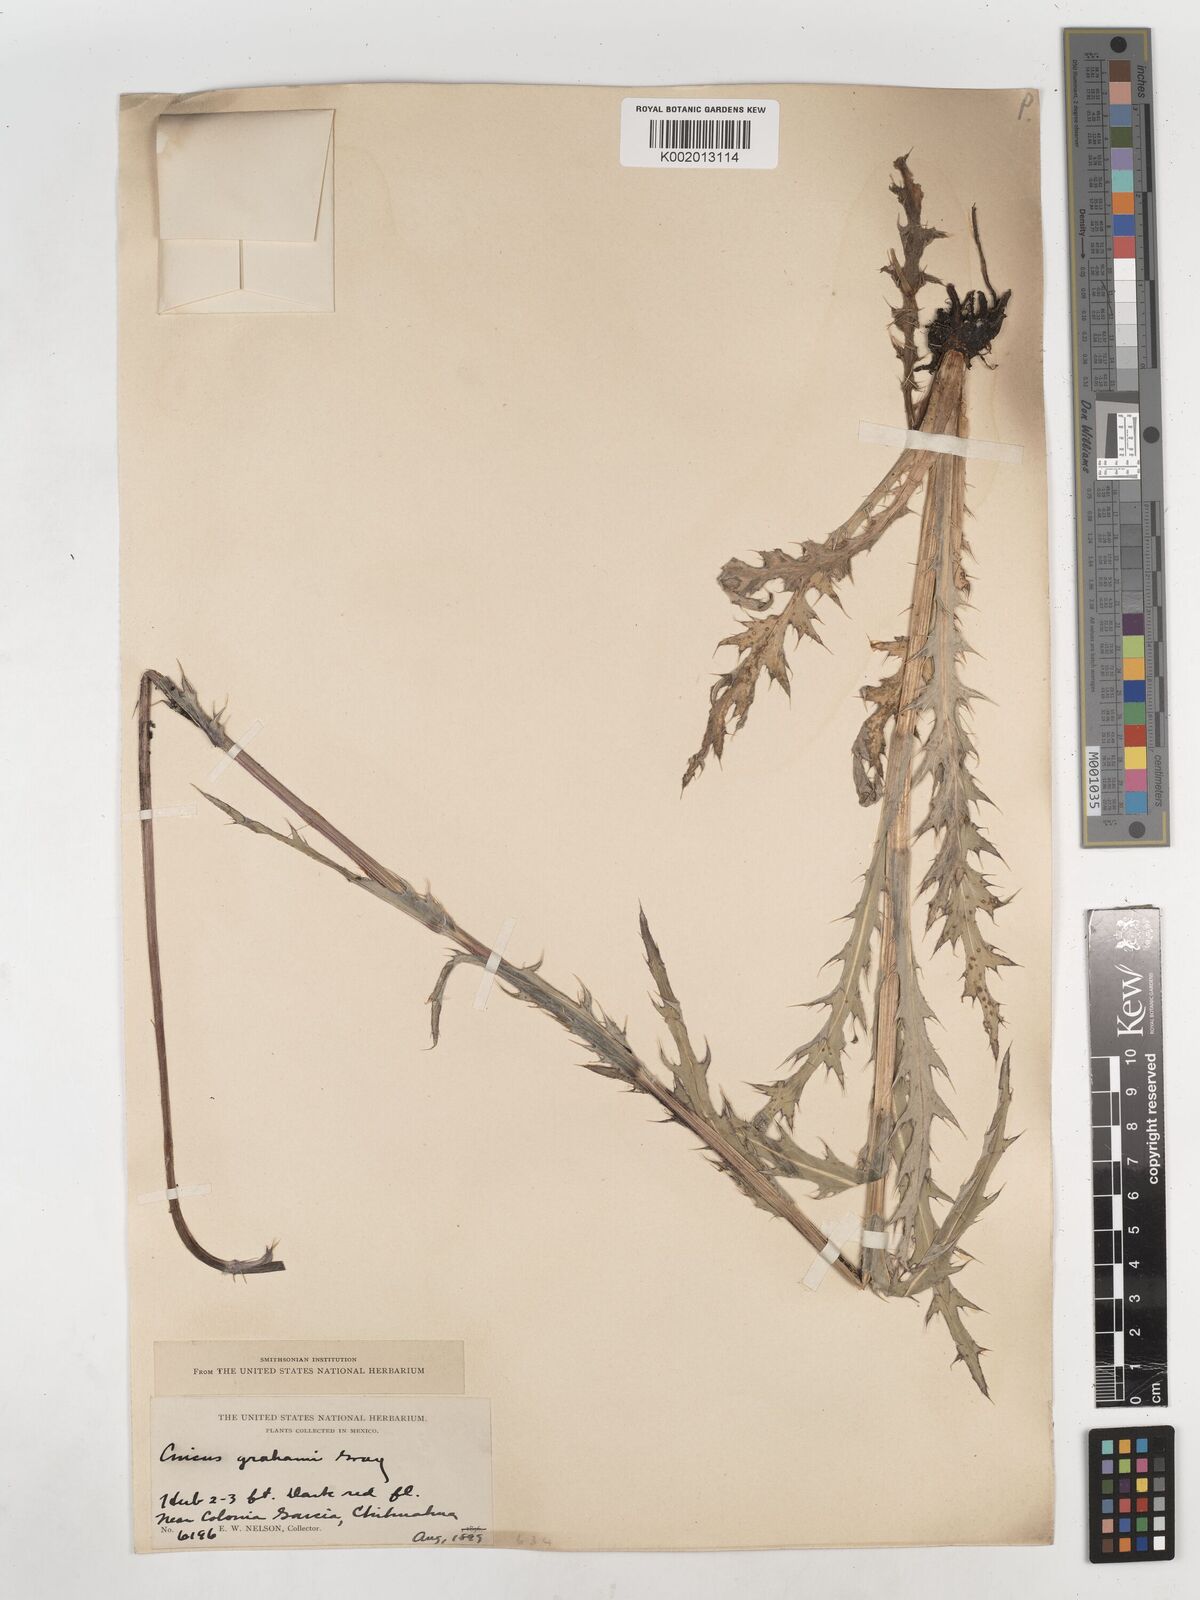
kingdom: Plantae
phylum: Tracheophyta
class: Magnoliopsida
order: Asterales
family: Asteraceae
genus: Cirsium
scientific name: Cirsium grahamii
